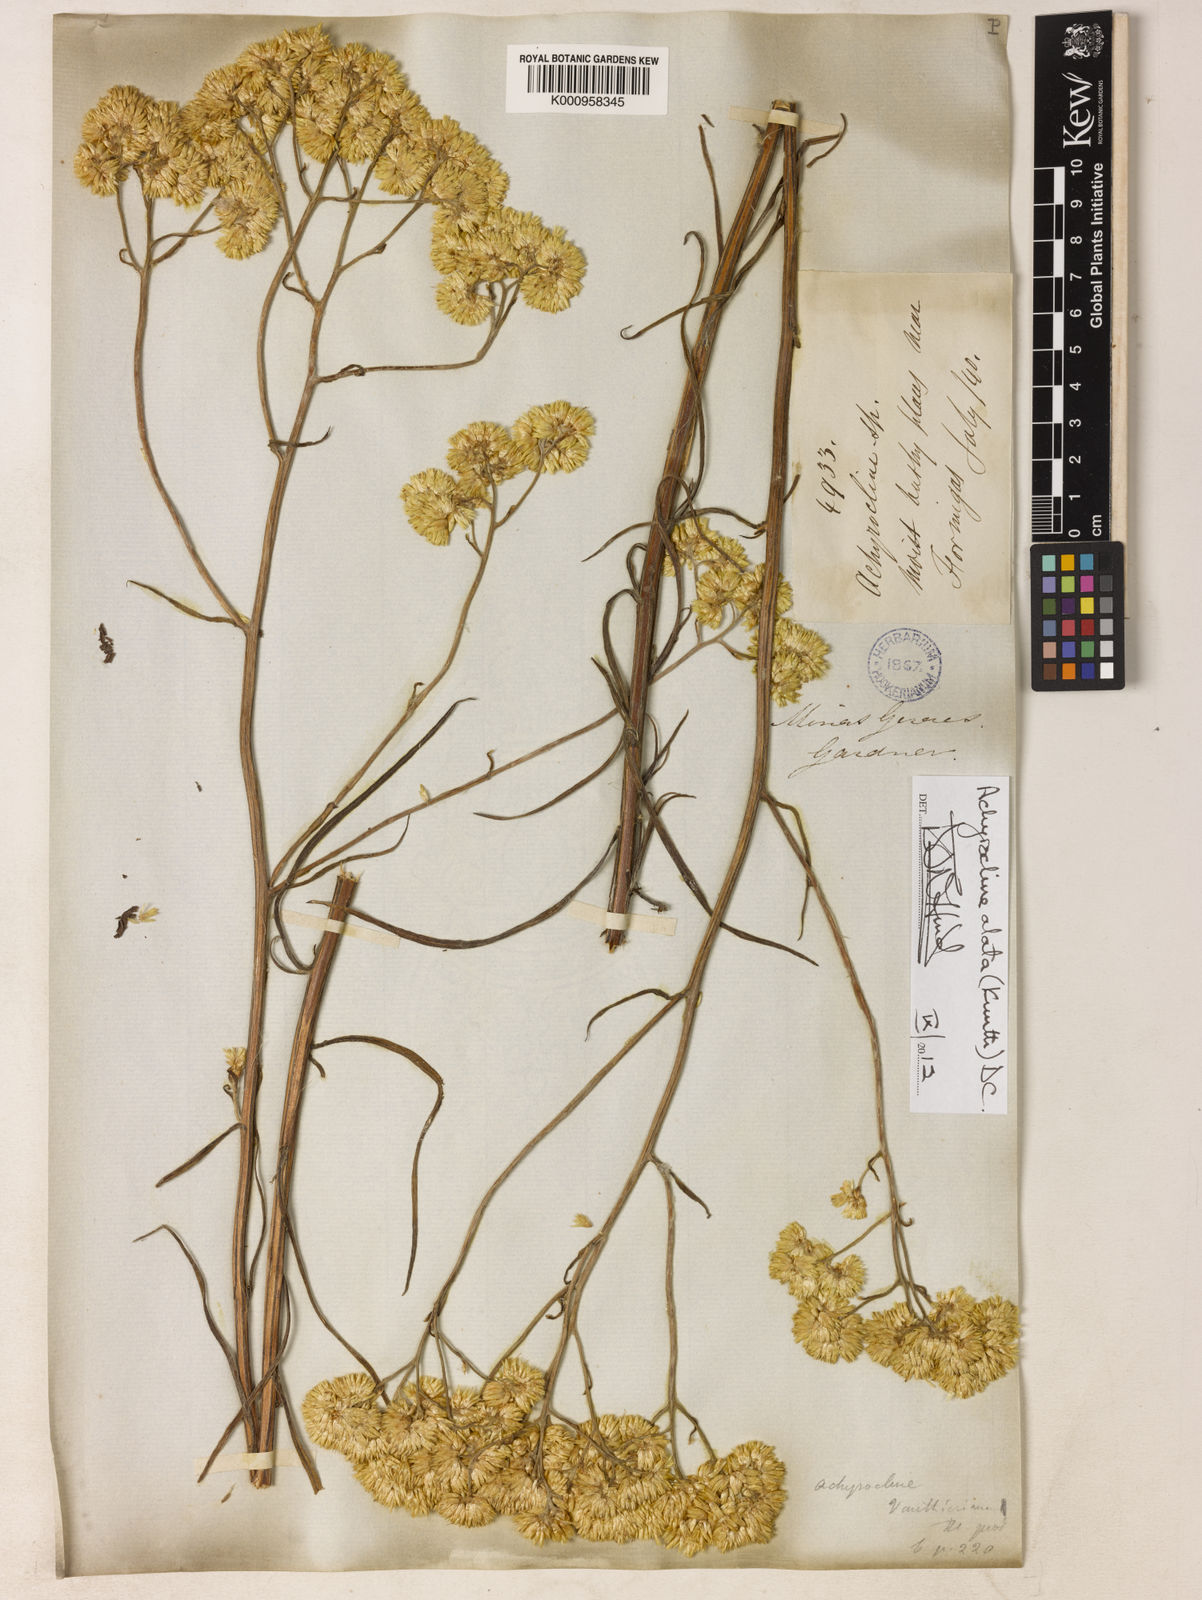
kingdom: Plantae
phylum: Tracheophyta
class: Magnoliopsida
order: Asterales
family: Asteraceae
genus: Achyrocline
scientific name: Achyrocline alata
